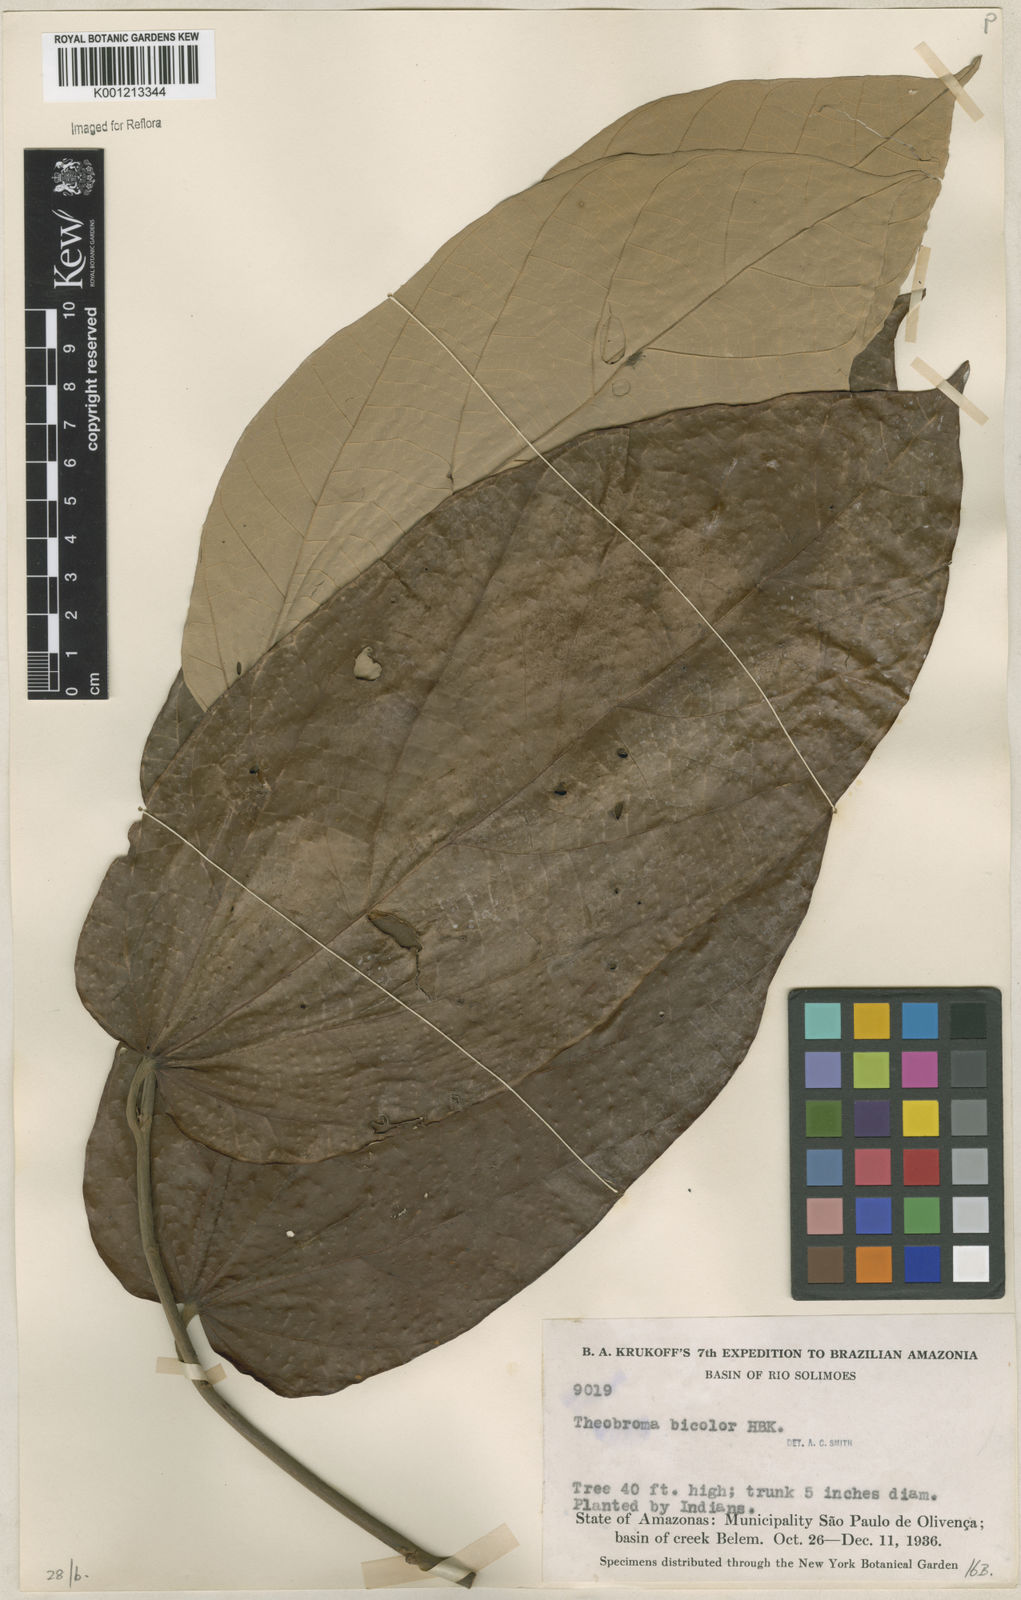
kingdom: Plantae
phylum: Tracheophyta
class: Magnoliopsida
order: Malvales
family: Malvaceae
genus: Theobroma
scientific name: Theobroma
